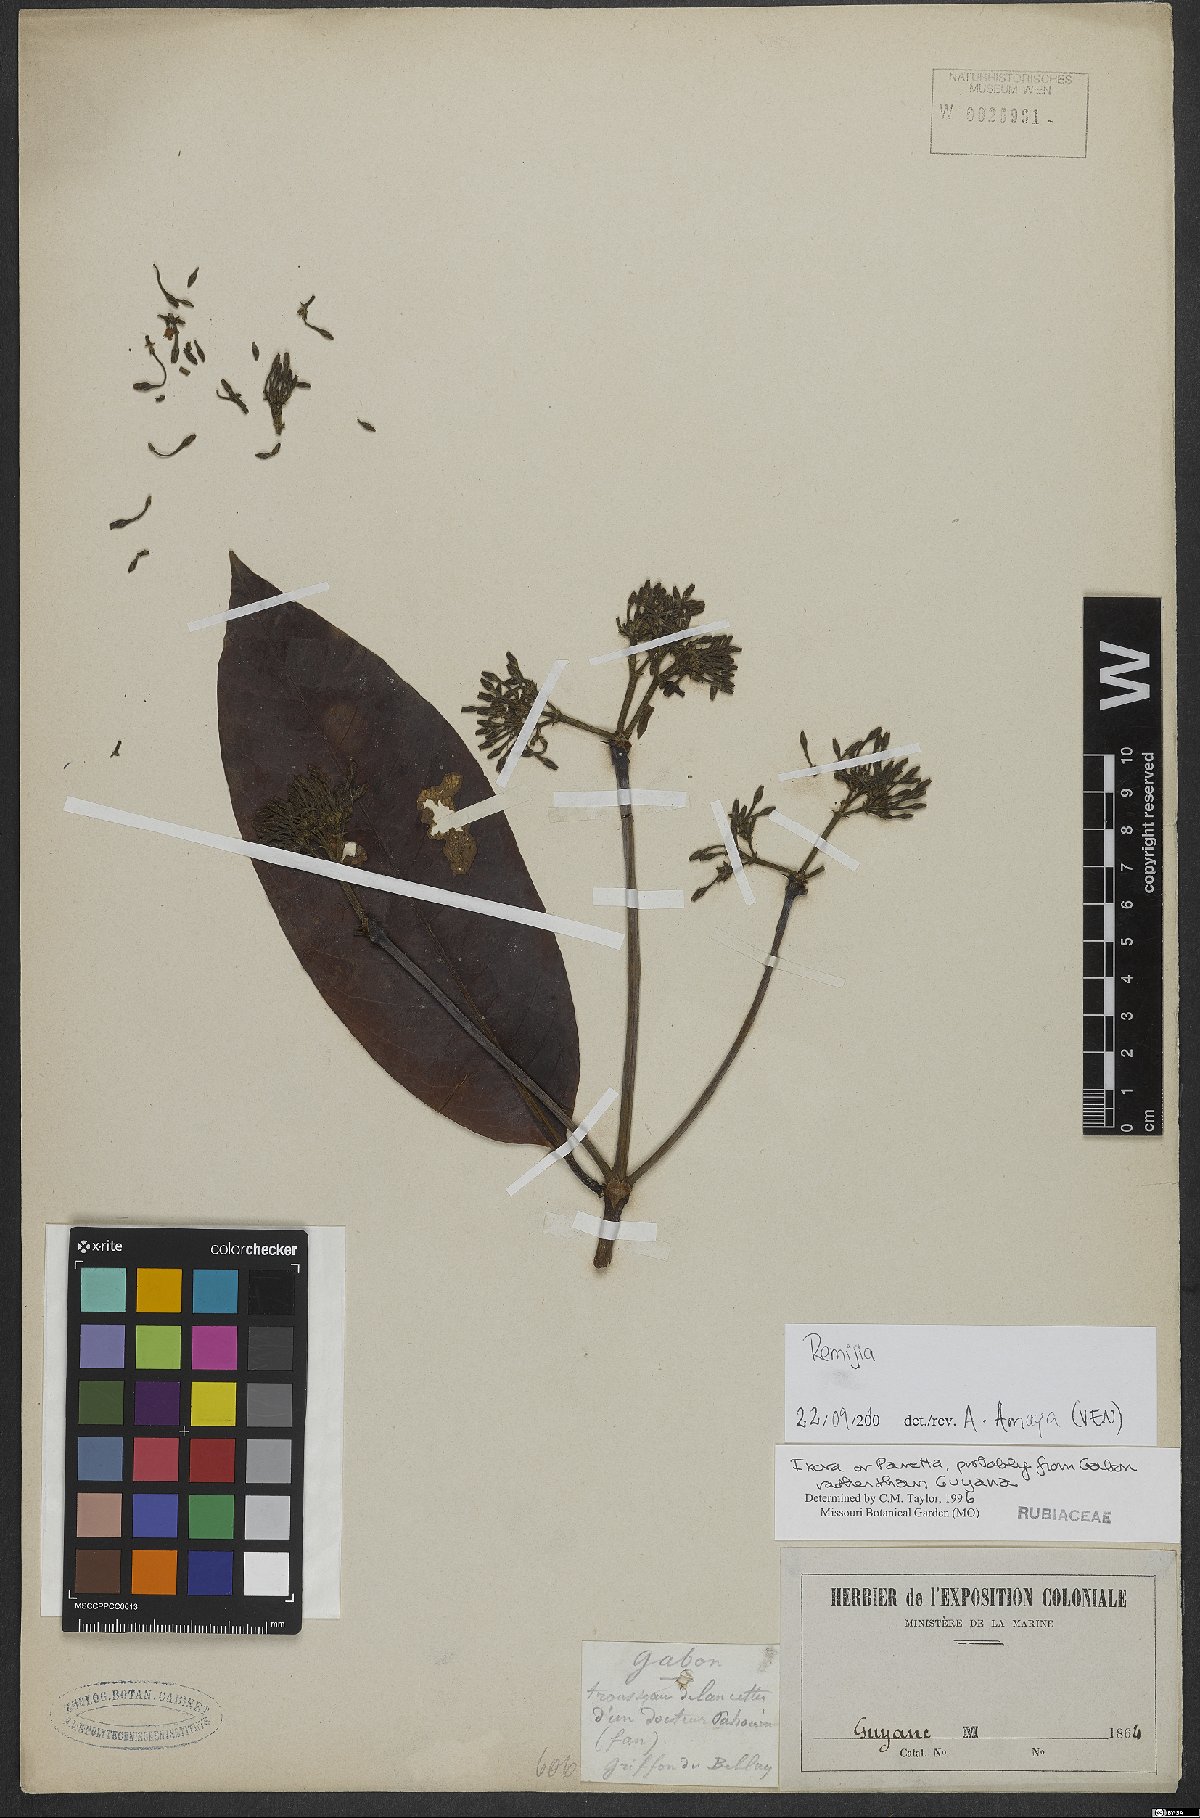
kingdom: Plantae
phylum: Tracheophyta
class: Magnoliopsida
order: Gentianales
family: Rubiaceae
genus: Remijia
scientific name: Remijia ulei
